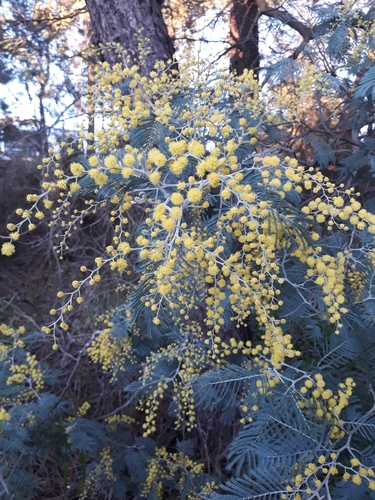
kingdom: Plantae
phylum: Tracheophyta
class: Magnoliopsida
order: Fabales
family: Fabaceae
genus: Acacia
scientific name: Acacia dealbata
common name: Silver wattle
